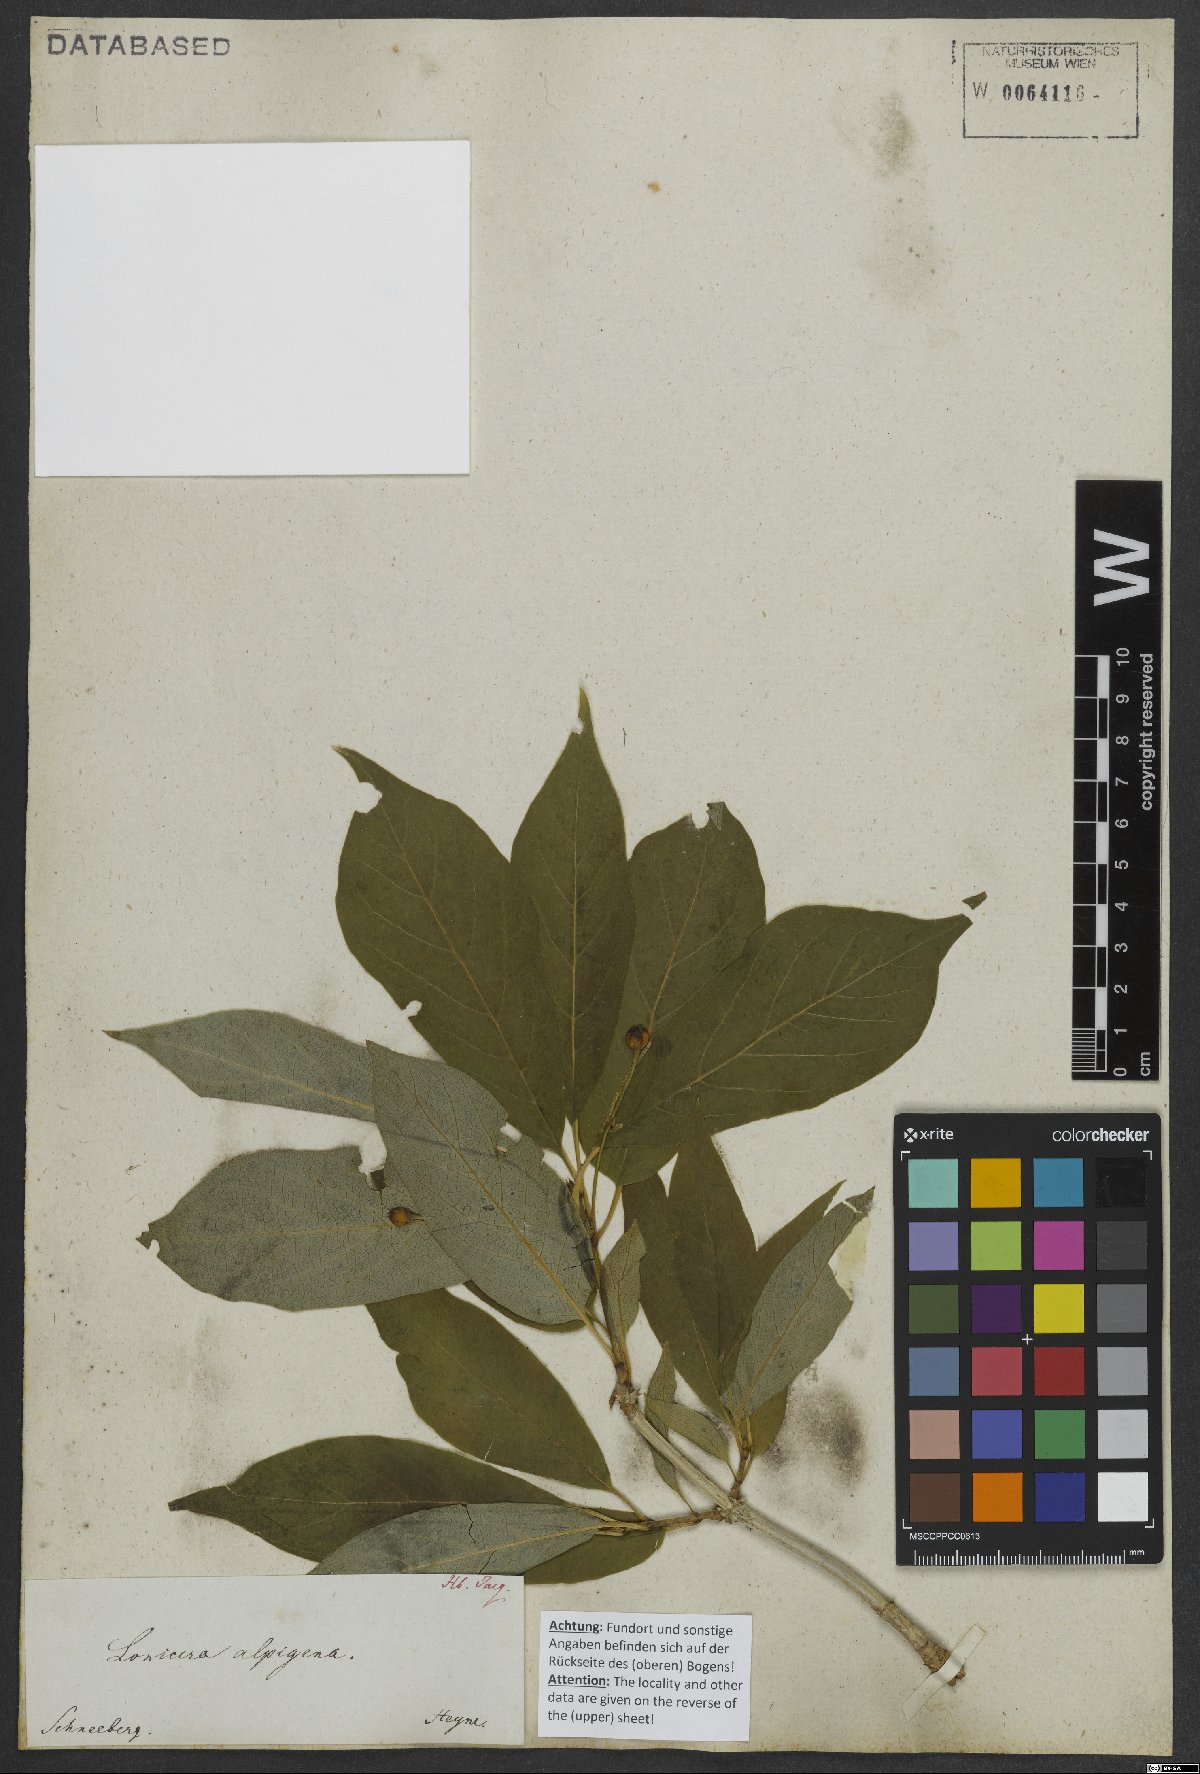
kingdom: Plantae
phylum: Tracheophyta
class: Magnoliopsida
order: Dipsacales
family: Caprifoliaceae
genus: Lonicera
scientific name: Lonicera alpigena
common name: Alpine honeysuckle
